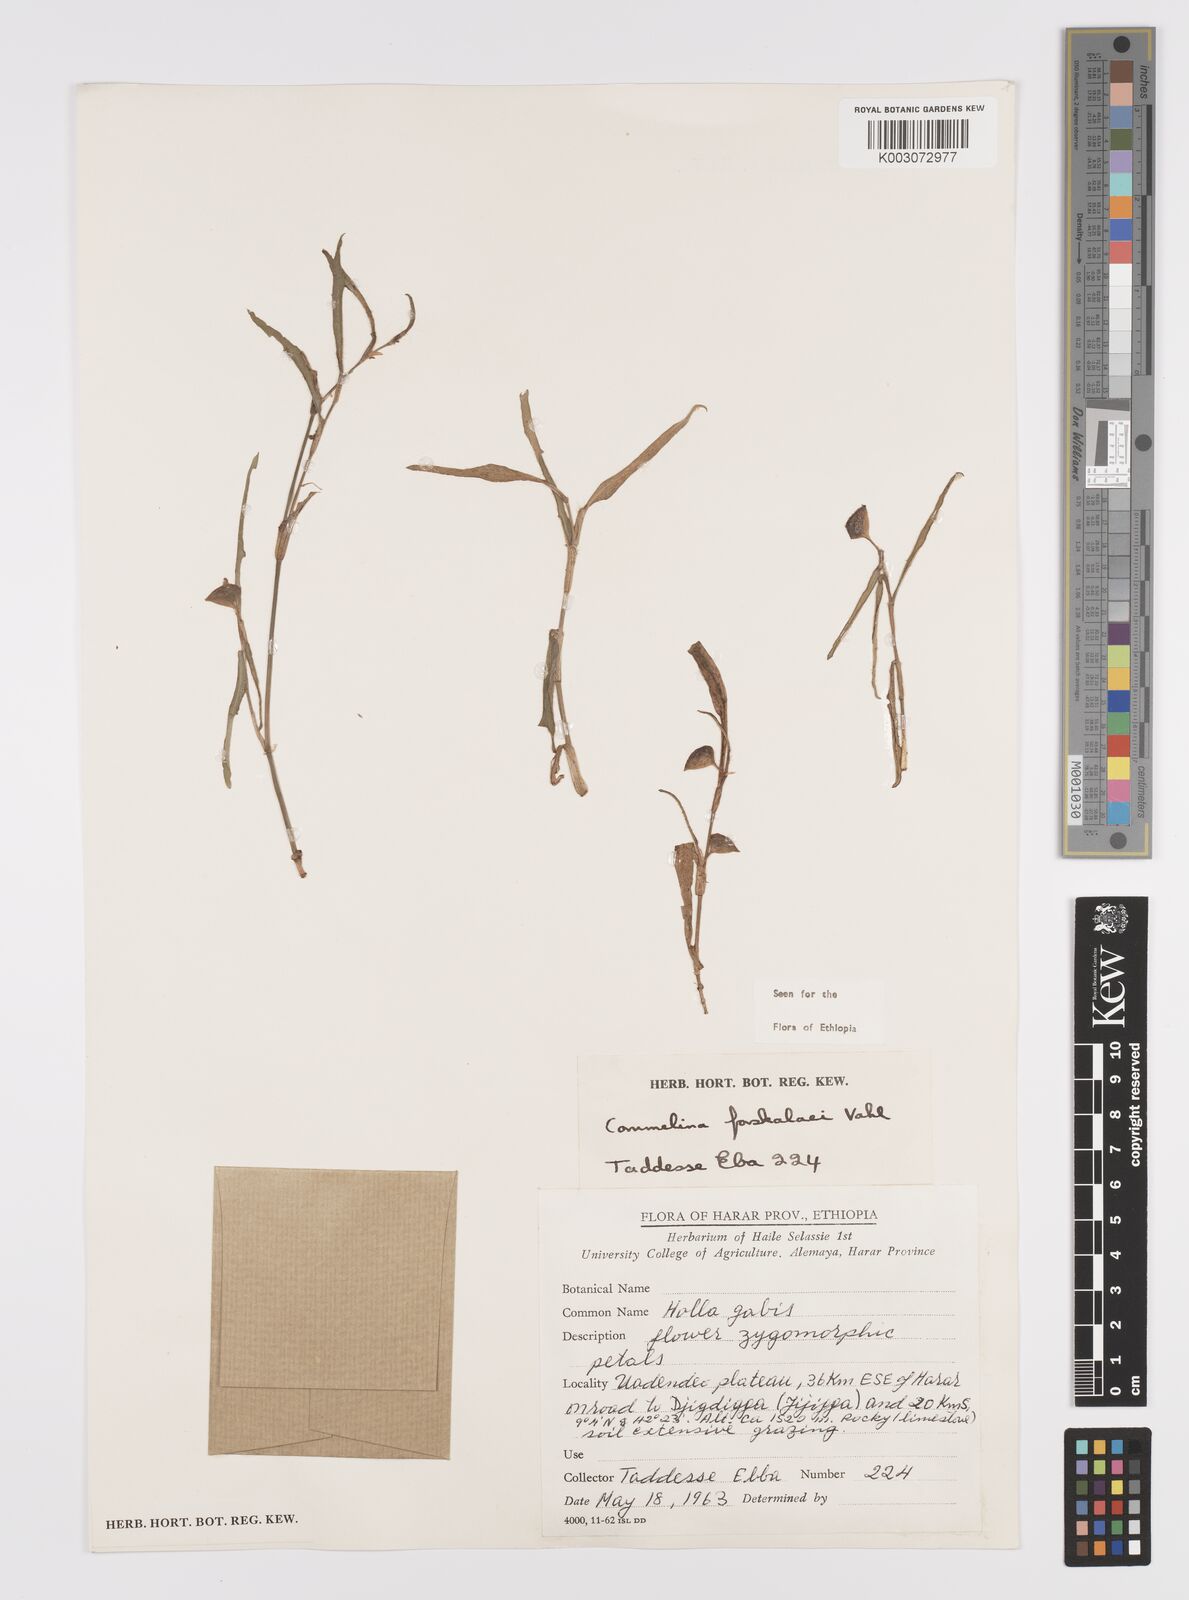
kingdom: Plantae
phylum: Tracheophyta
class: Liliopsida
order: Commelinales
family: Commelinaceae
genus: Commelina
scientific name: Commelina forskaolii
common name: Rat's ear
